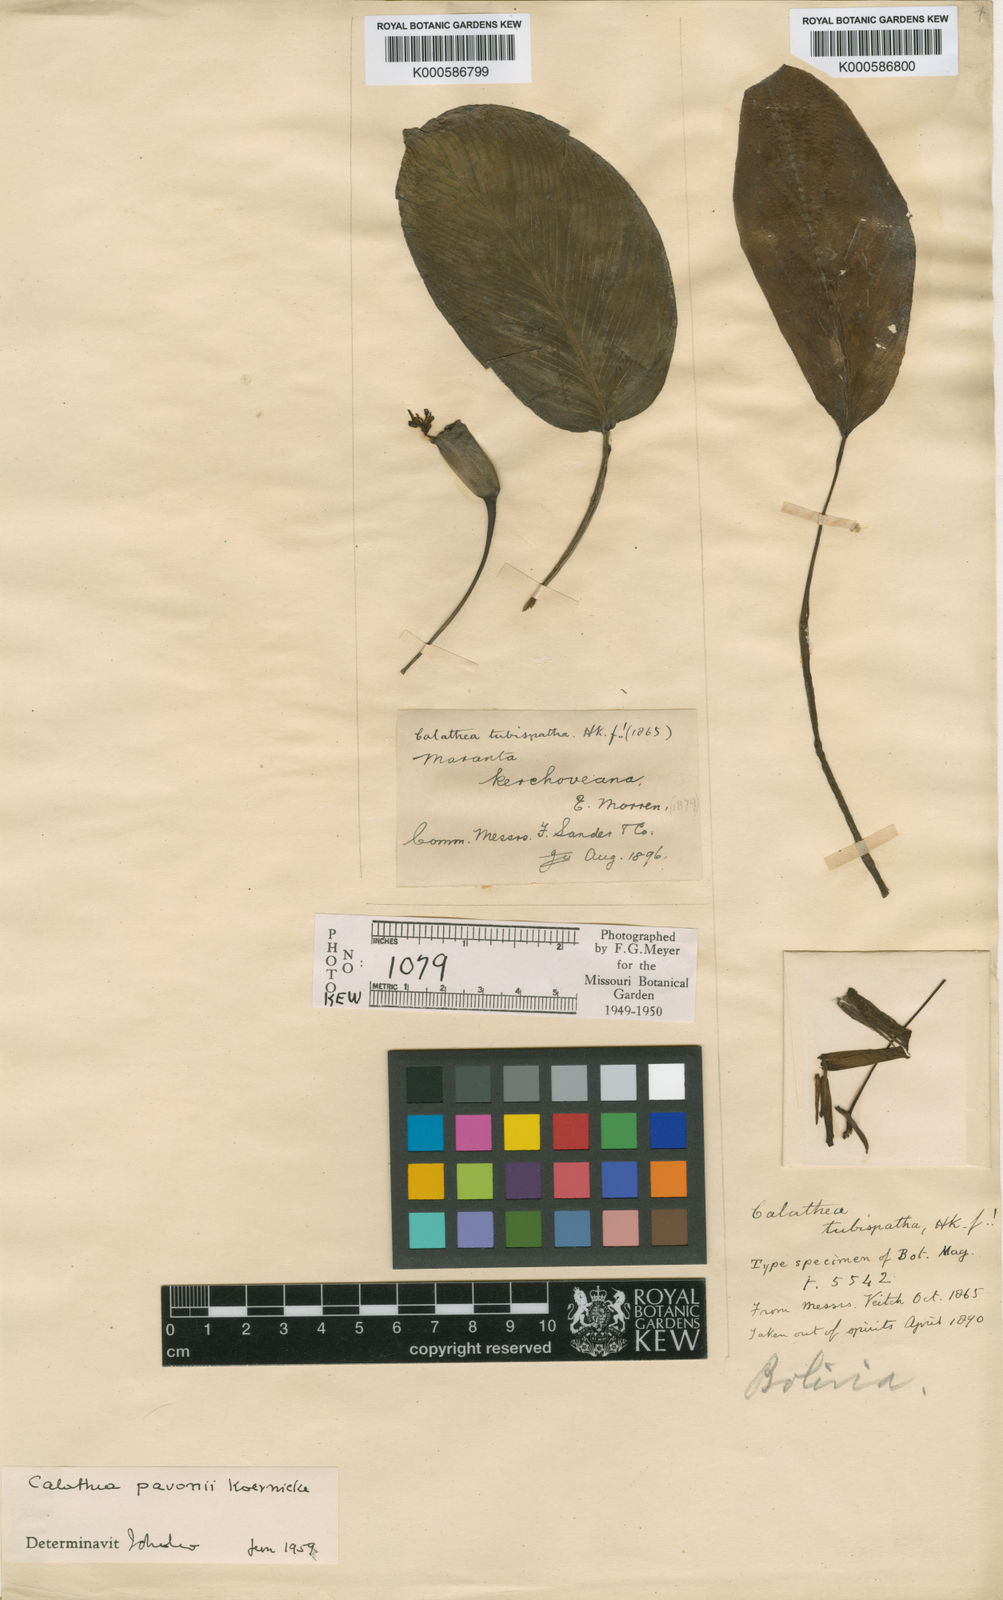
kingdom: Plantae
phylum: Tracheophyta
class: Liliopsida
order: Zingiberales
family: Marantaceae
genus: Calathea
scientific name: Calathea
